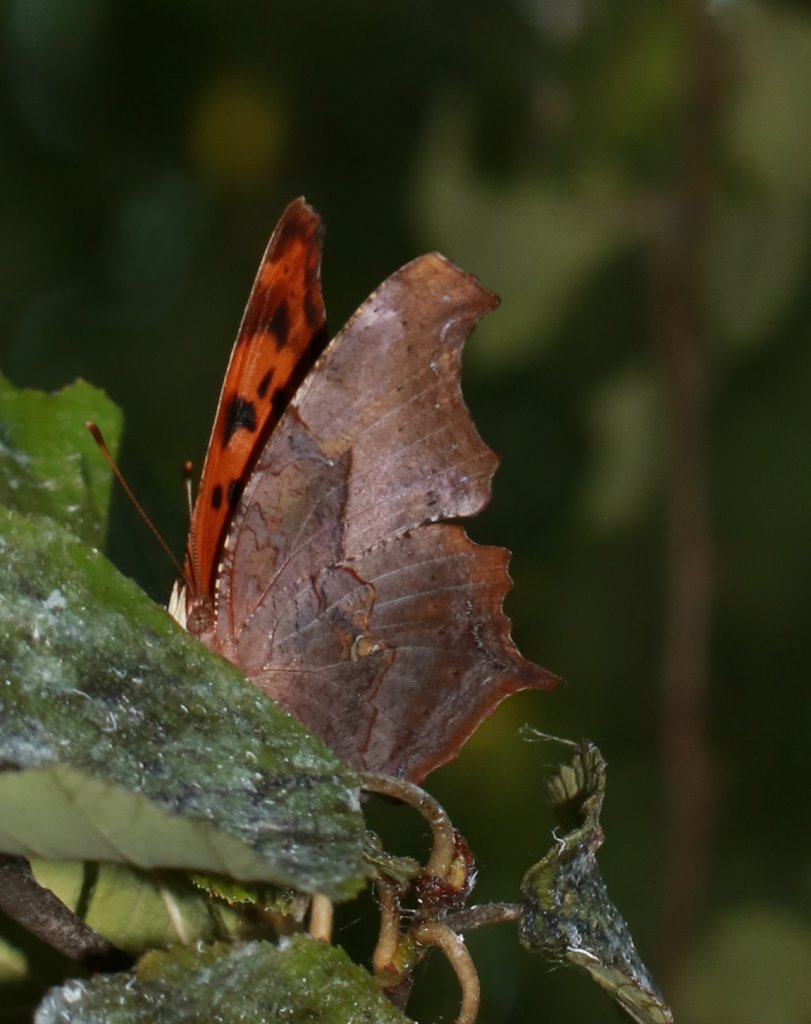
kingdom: Animalia
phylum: Arthropoda
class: Insecta
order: Lepidoptera
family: Nymphalidae
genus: Polygonia
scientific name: Polygonia interrogationis
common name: Question Mark
